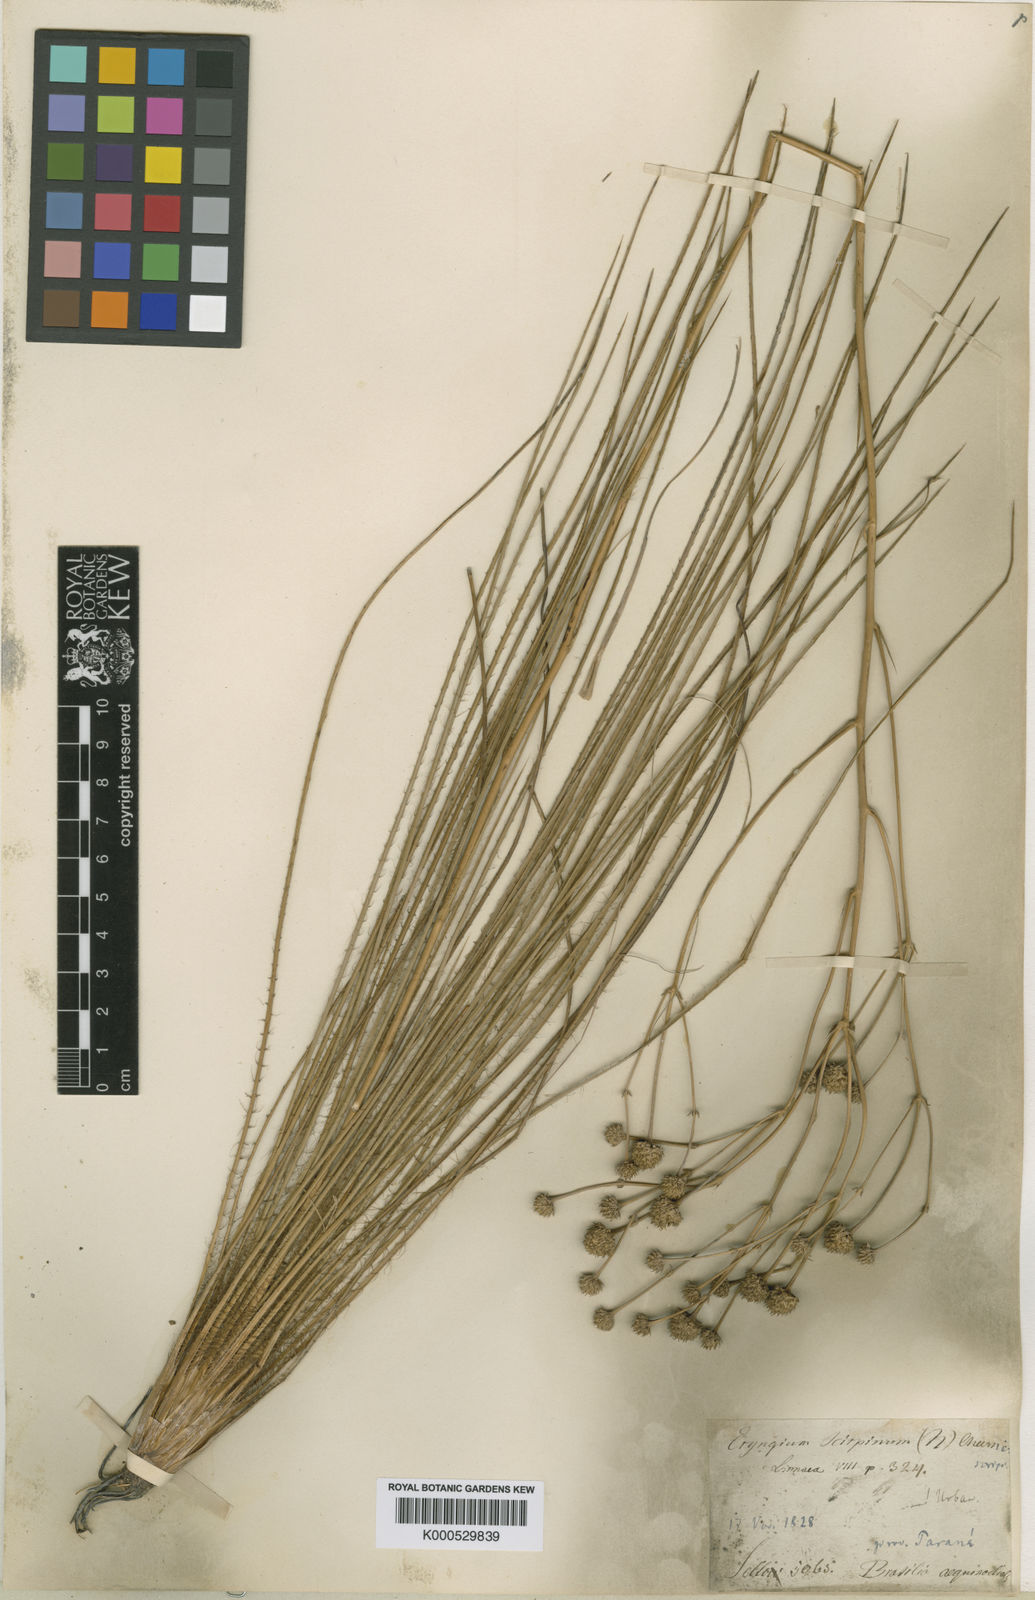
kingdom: Plantae
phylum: Tracheophyta
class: Magnoliopsida
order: Apiales
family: Apiaceae
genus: Eryngium
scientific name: Eryngium scirpinum
